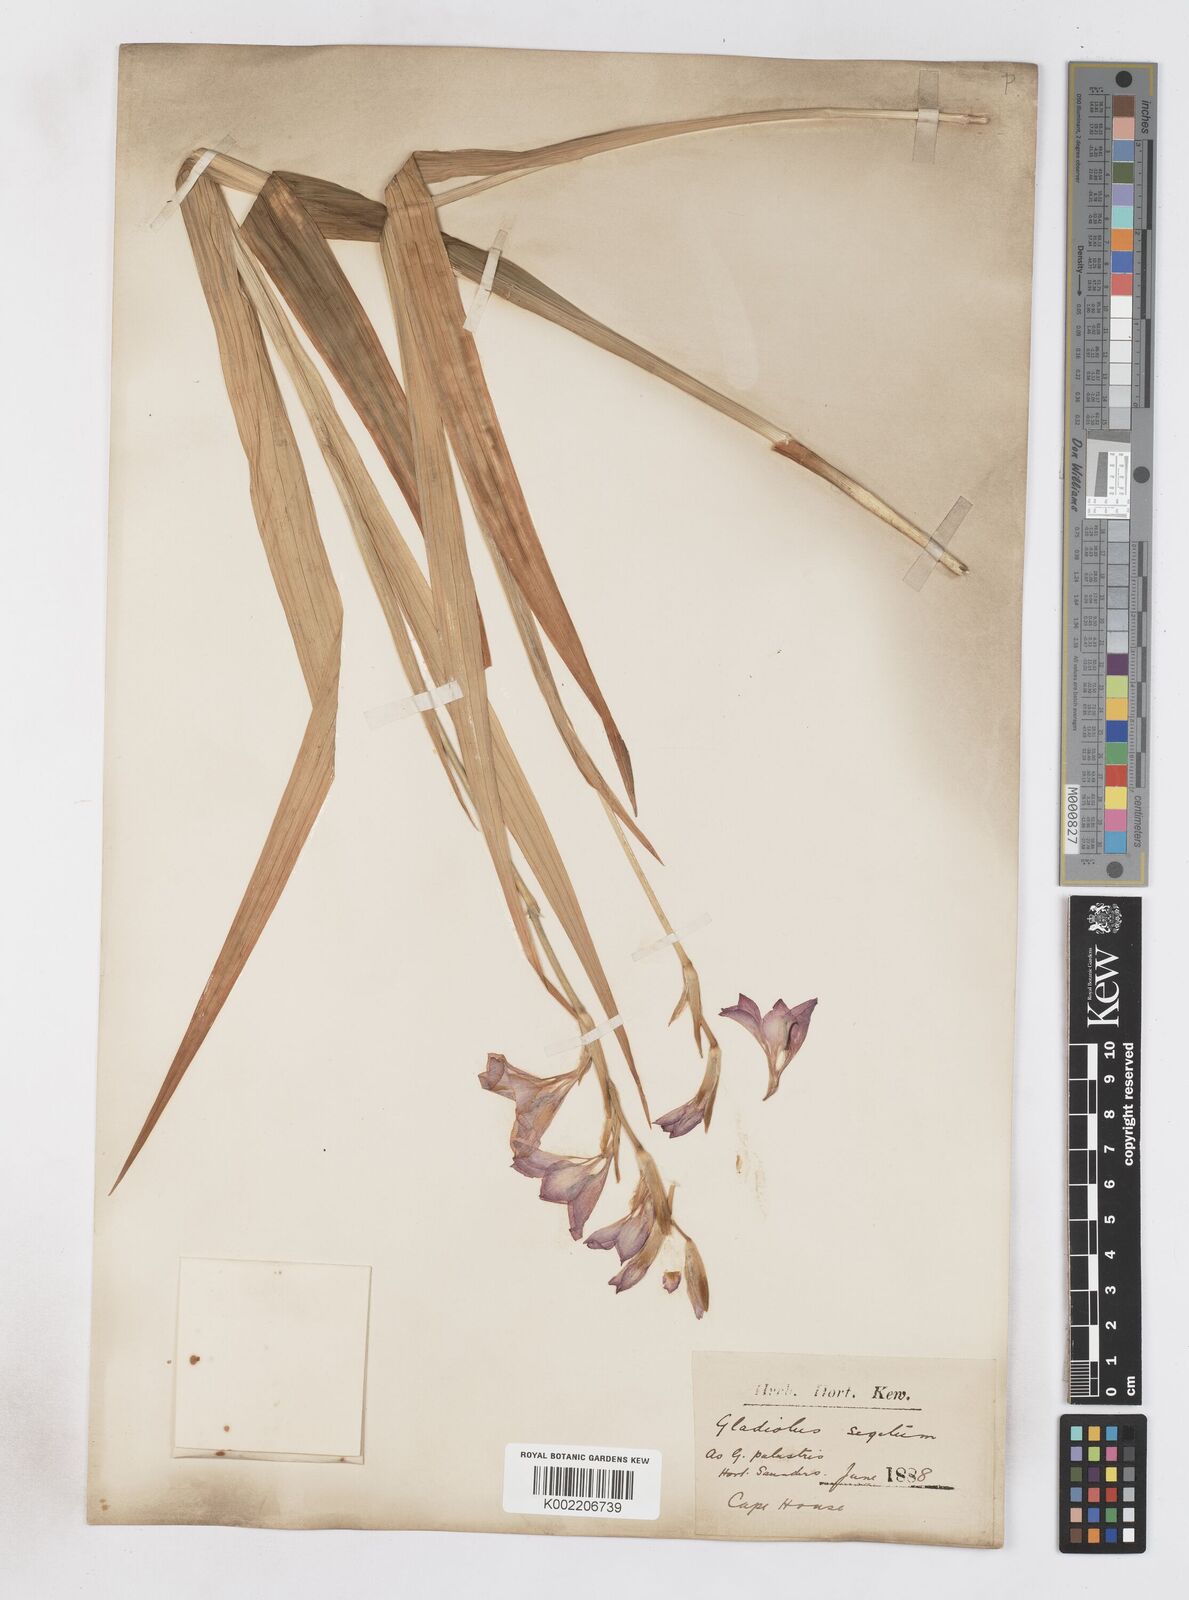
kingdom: Plantae
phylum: Tracheophyta
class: Liliopsida
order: Asparagales
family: Iridaceae
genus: Gladiolus
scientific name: Gladiolus italicus
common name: Field gladiolus
